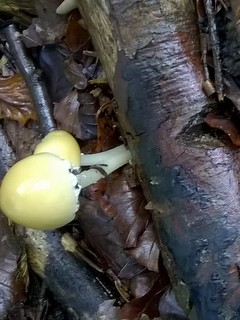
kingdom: Fungi
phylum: Basidiomycota
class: Agaricomycetes
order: Agaricales
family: Psathyrellaceae
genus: Candolleomyces
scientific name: Candolleomyces candolleanus
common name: Candolles mørkhat
